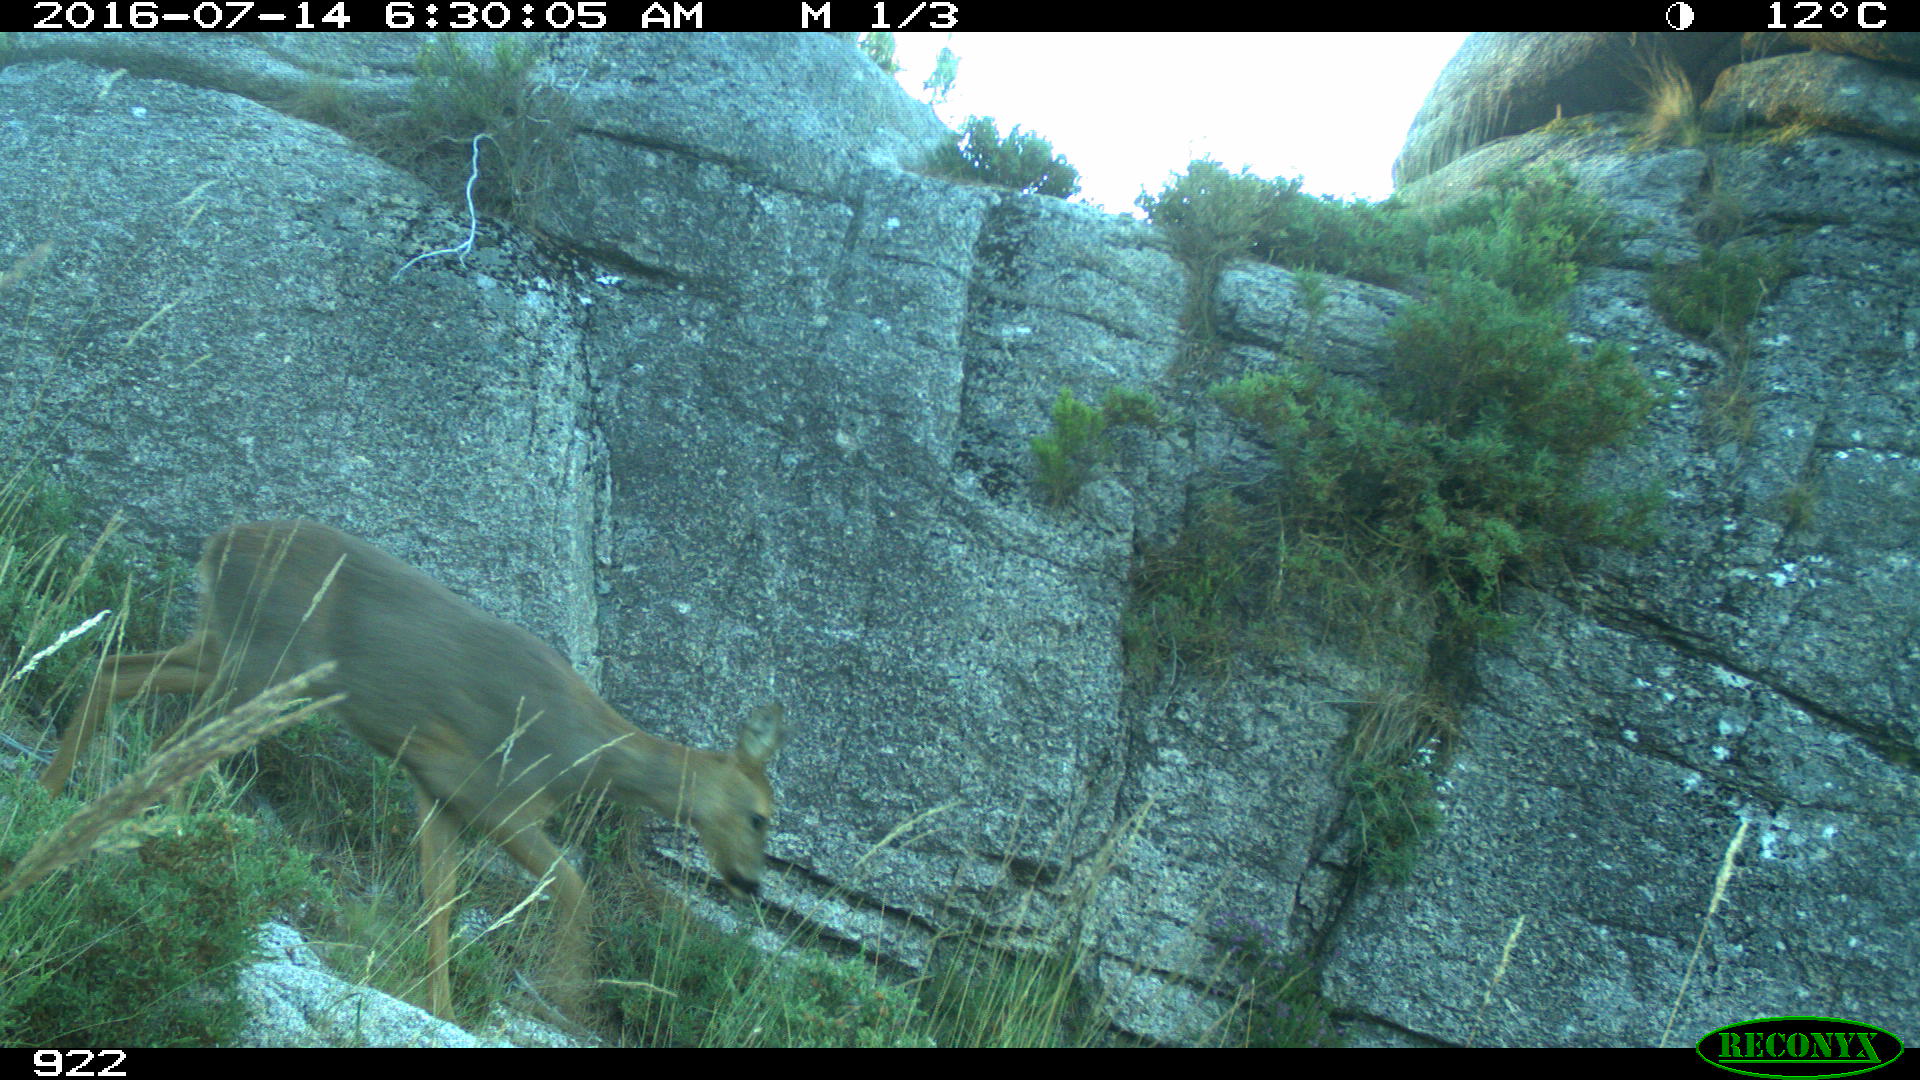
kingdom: Animalia
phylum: Chordata
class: Mammalia
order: Artiodactyla
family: Cervidae
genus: Capreolus
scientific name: Capreolus capreolus
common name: Western roe deer
